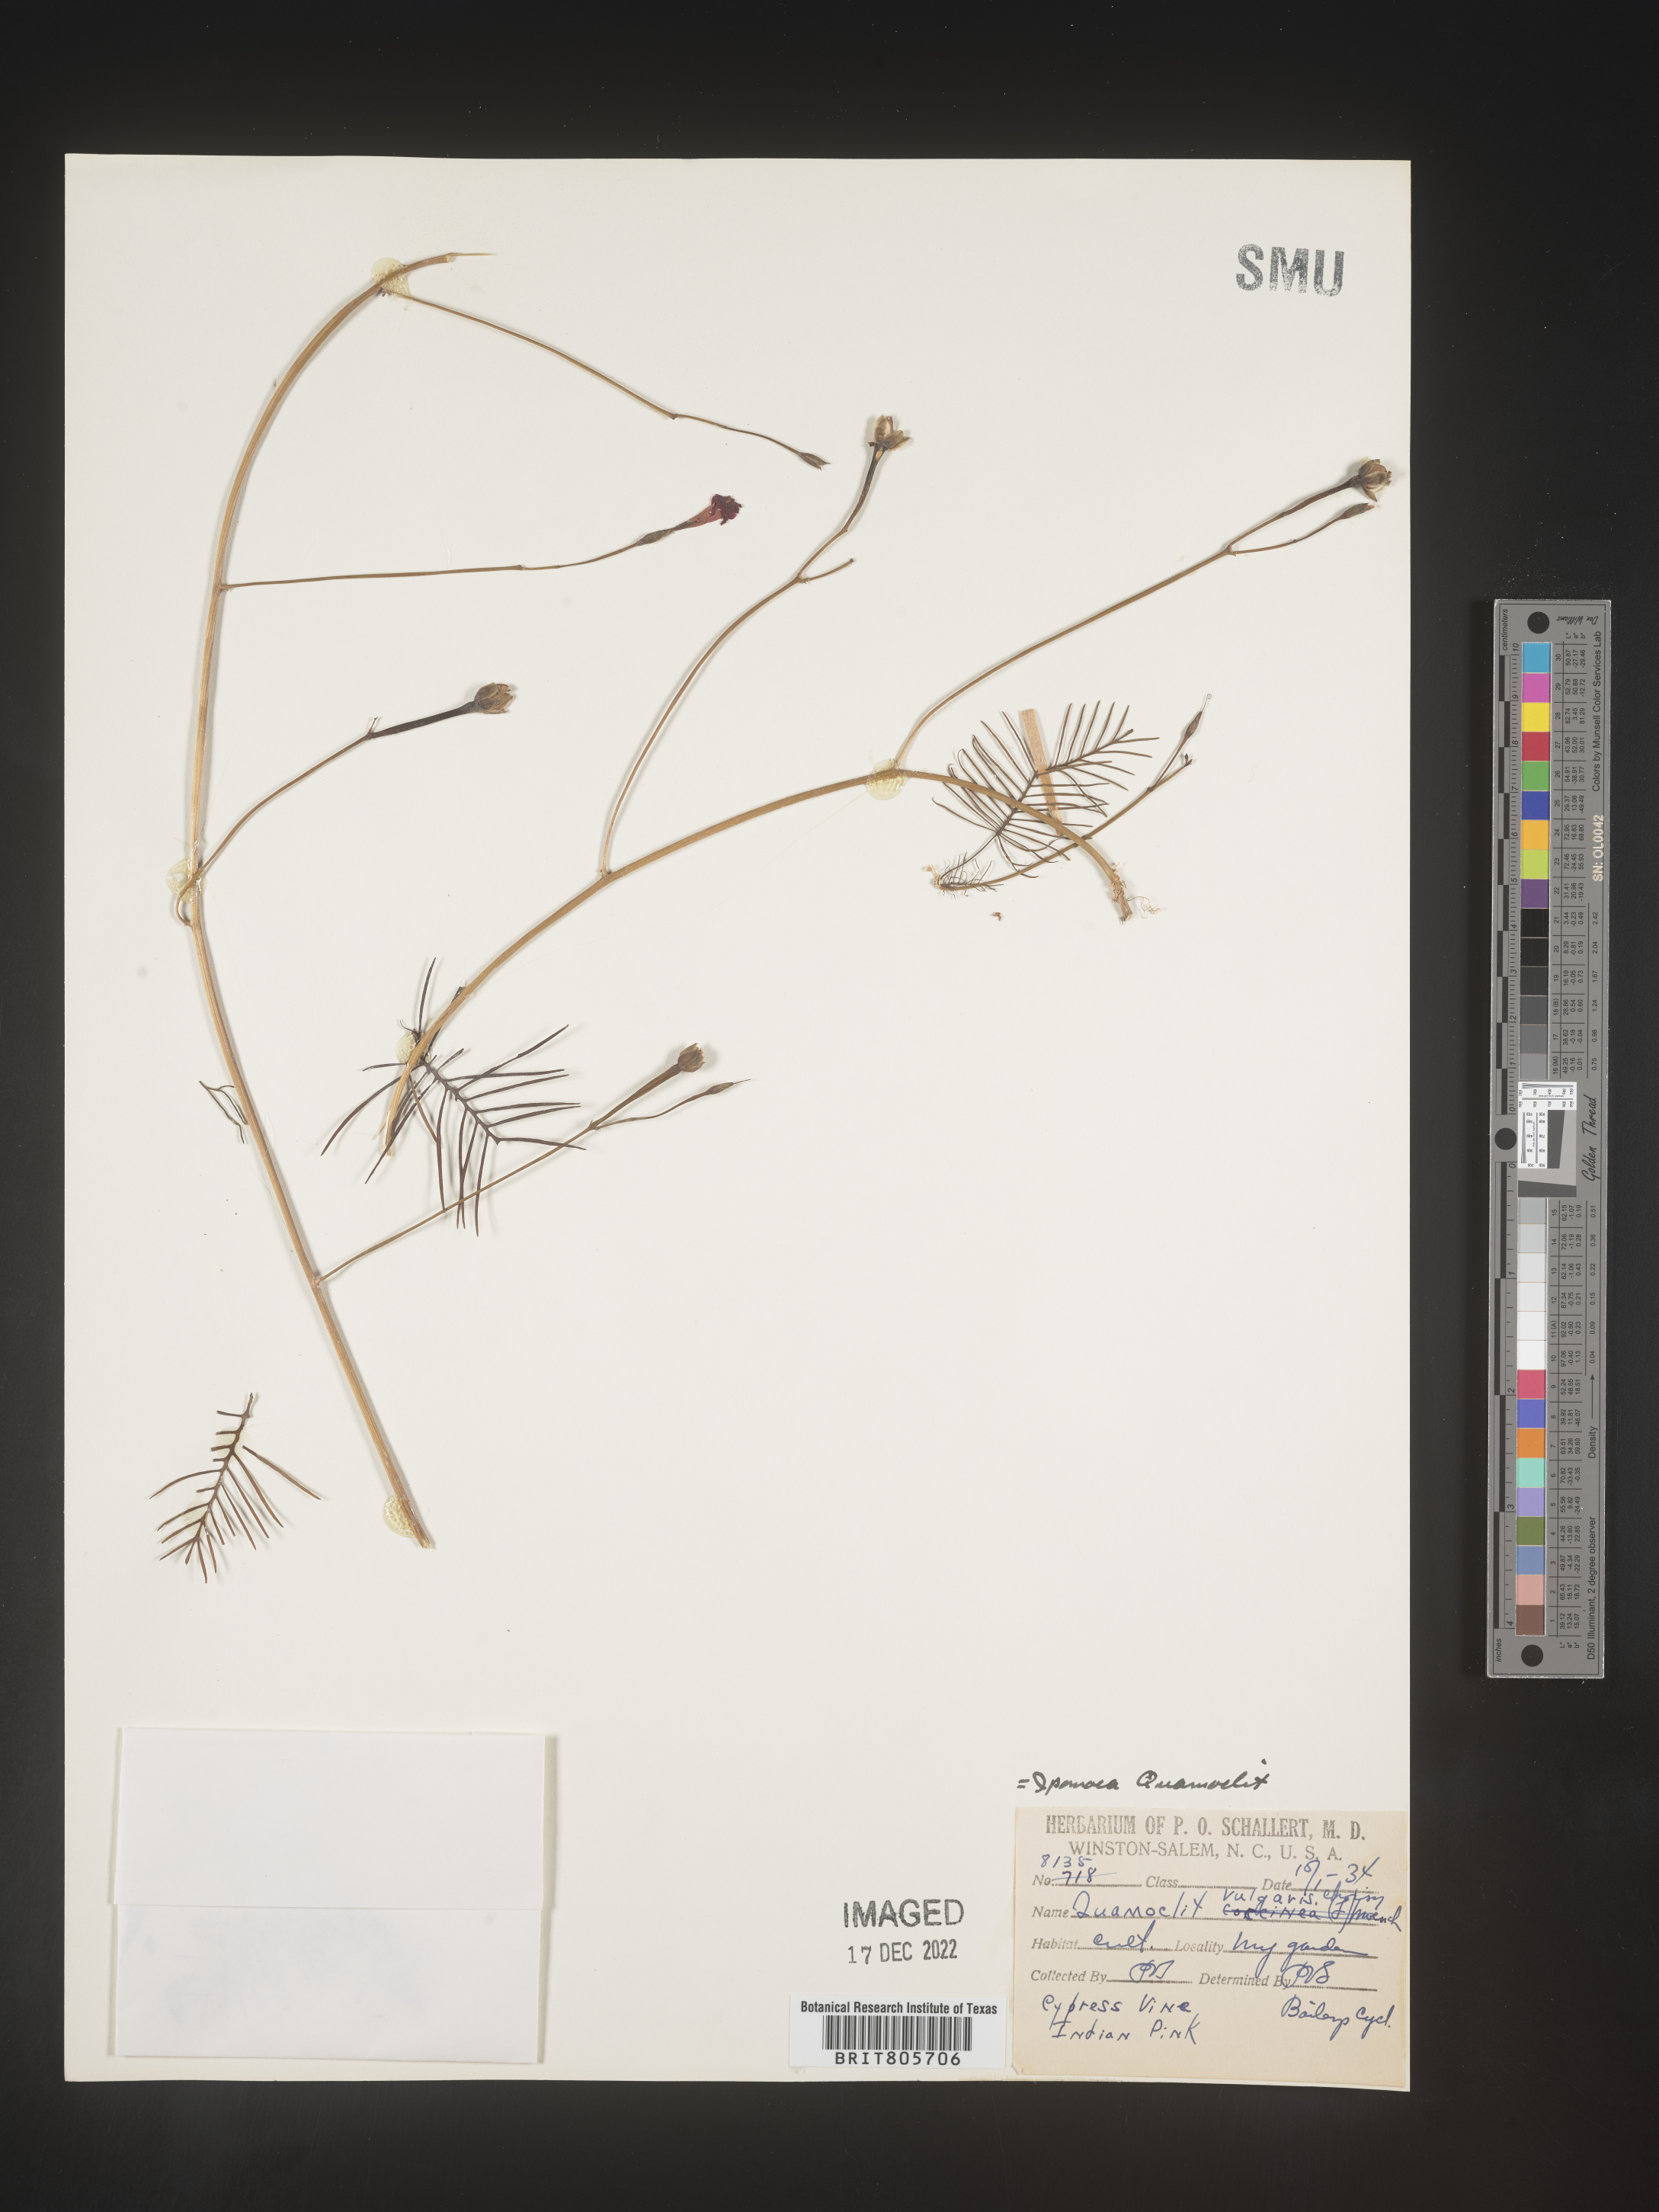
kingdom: Plantae
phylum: Tracheophyta
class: Magnoliopsida
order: Solanales
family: Convolvulaceae
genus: Ipomoea
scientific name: Ipomoea quamoclit
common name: Cypress vine
